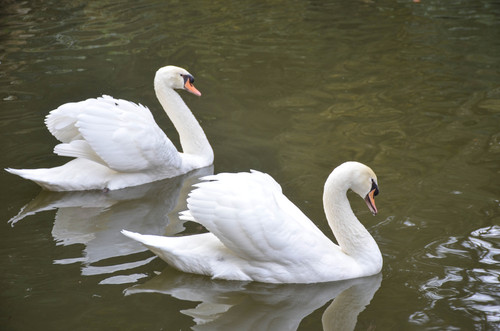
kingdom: Animalia
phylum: Chordata
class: Aves
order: Anseriformes
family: Anatidae
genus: Cygnus
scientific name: Cygnus olor
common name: Mute swan
